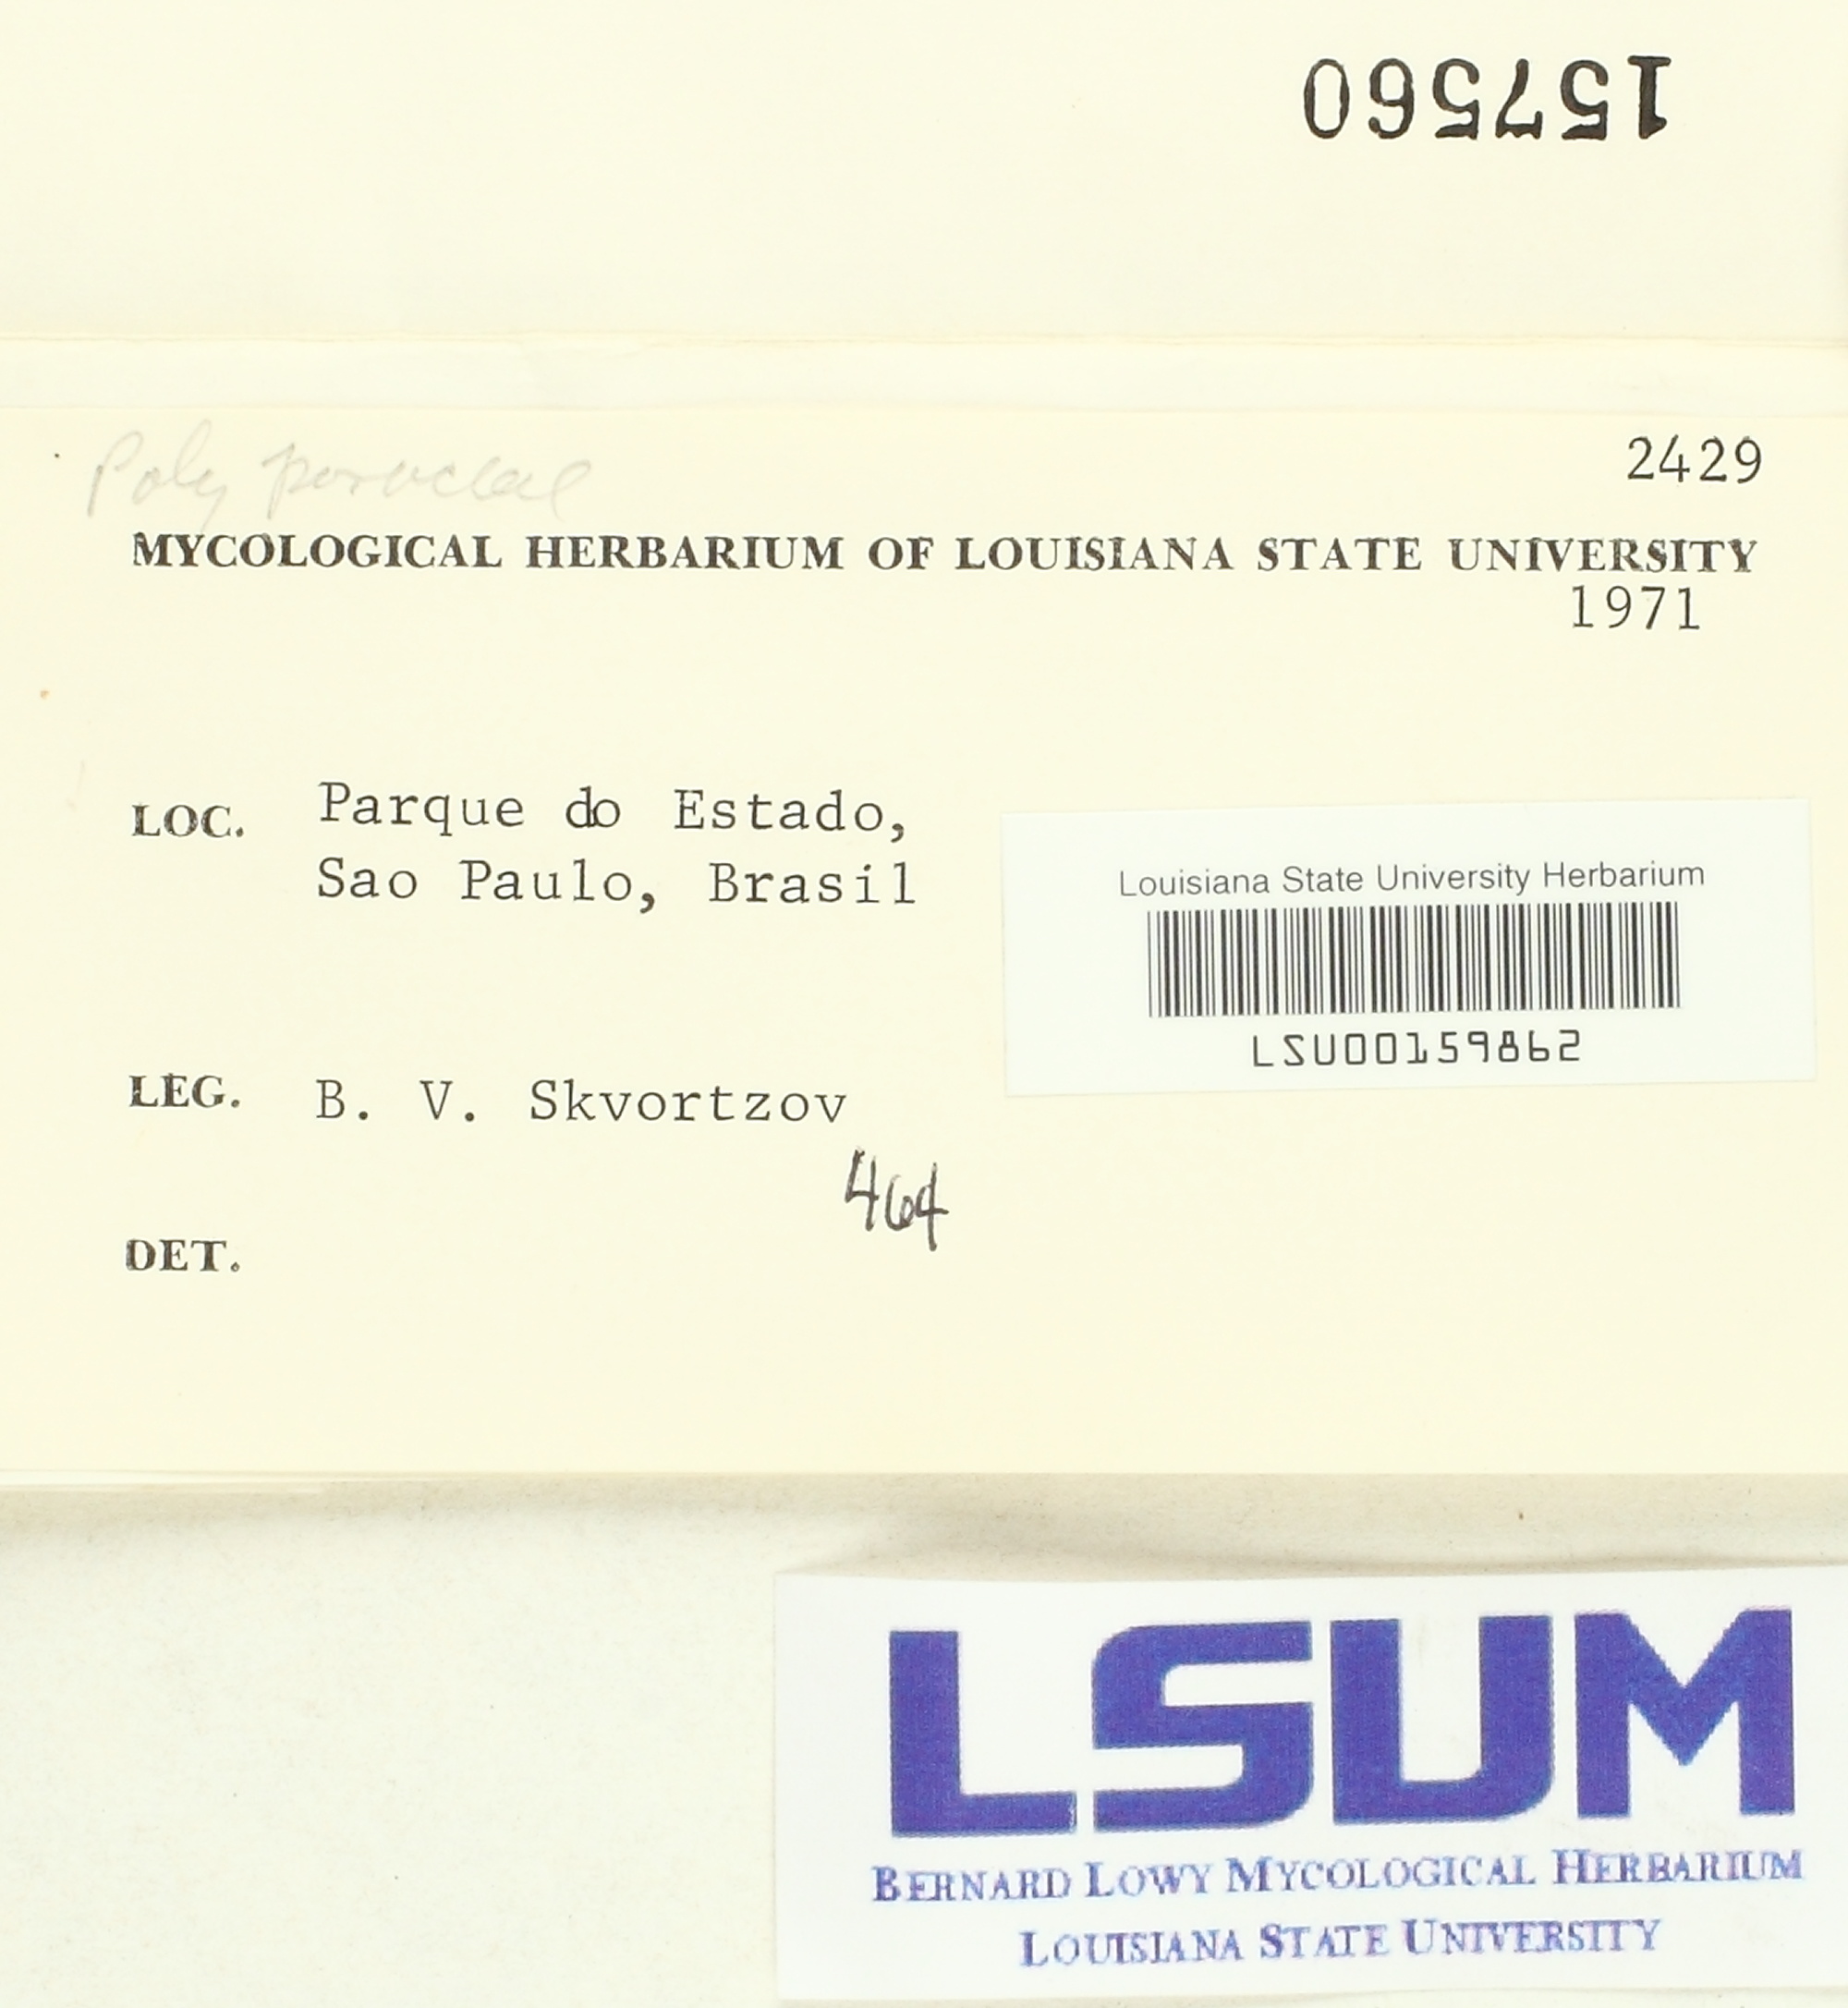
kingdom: Fungi
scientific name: Fungi
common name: Fungi
